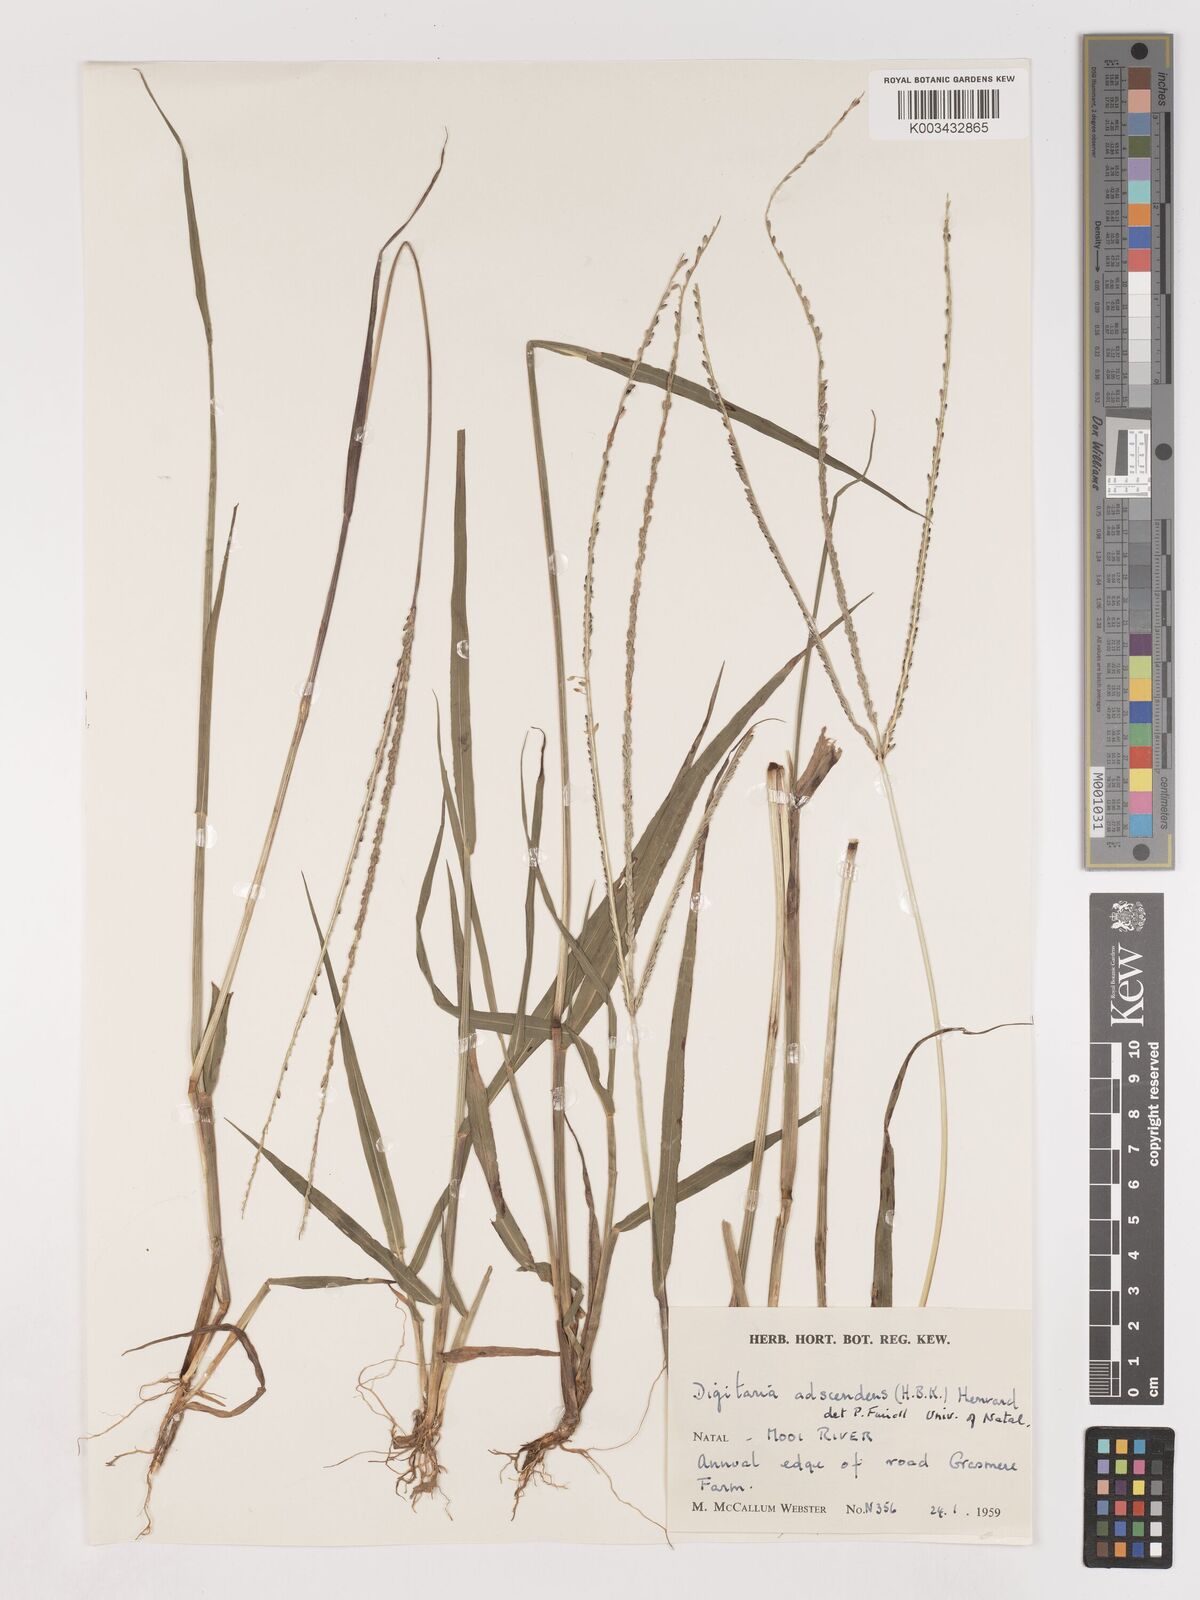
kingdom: Plantae
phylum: Tracheophyta
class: Liliopsida
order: Poales
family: Poaceae
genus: Digitaria
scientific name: Digitaria ternata
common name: Blackseed crabgrass
